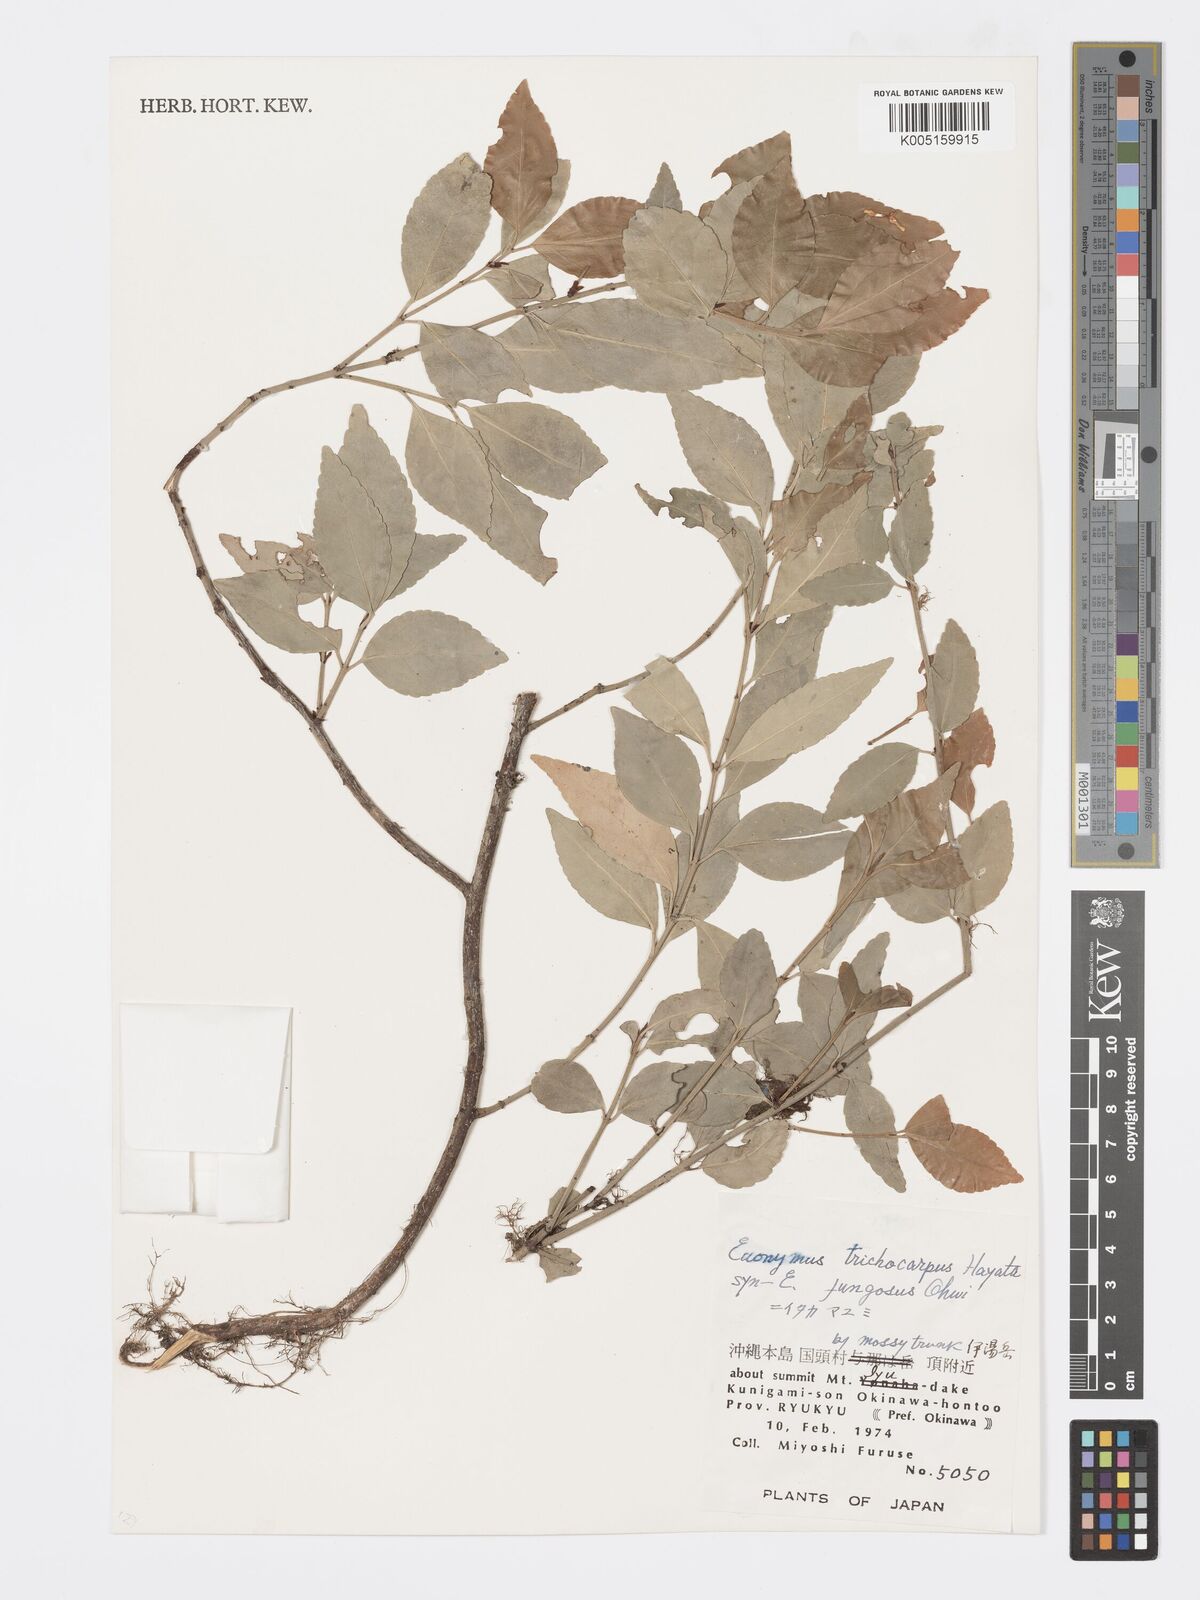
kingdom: Plantae
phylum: Tracheophyta
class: Magnoliopsida
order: Celastrales
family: Celastraceae
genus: Euonymus
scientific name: Euonymus echinatus
